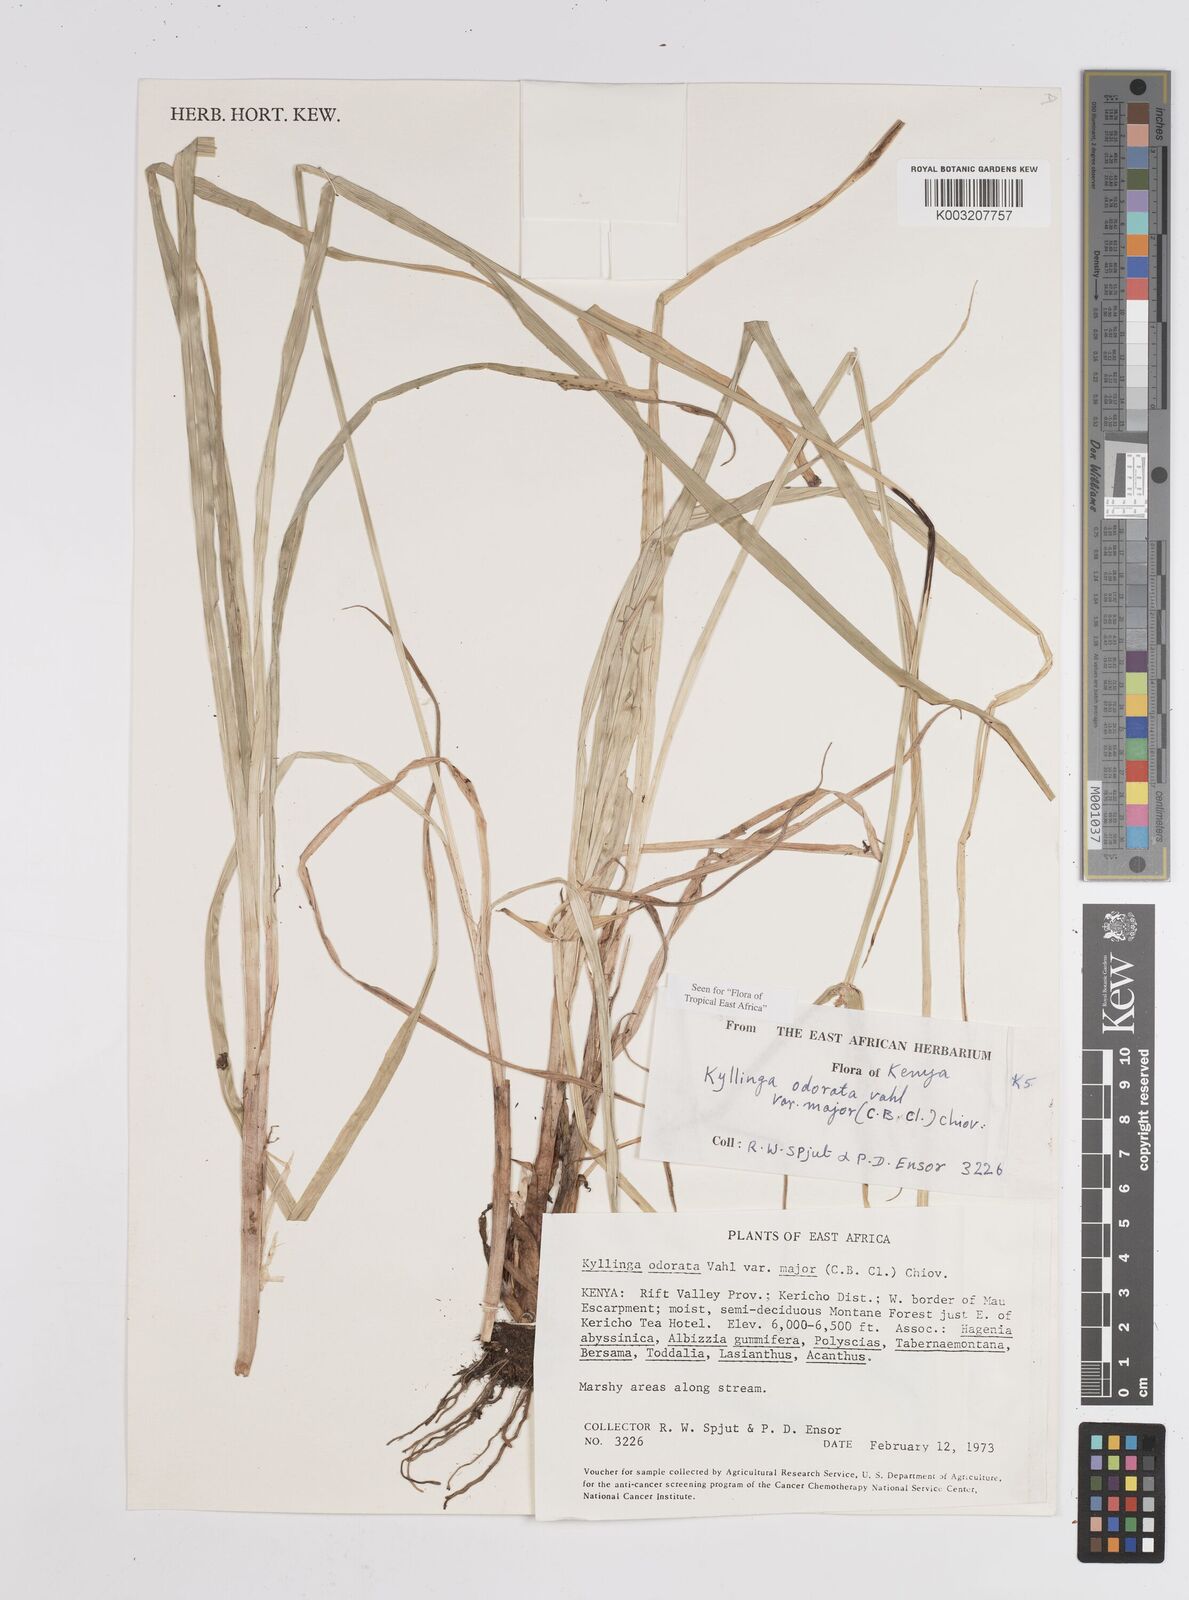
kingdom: Plantae
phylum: Tracheophyta
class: Liliopsida
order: Poales
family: Cyperaceae
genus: Cyperus
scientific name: Cyperus
